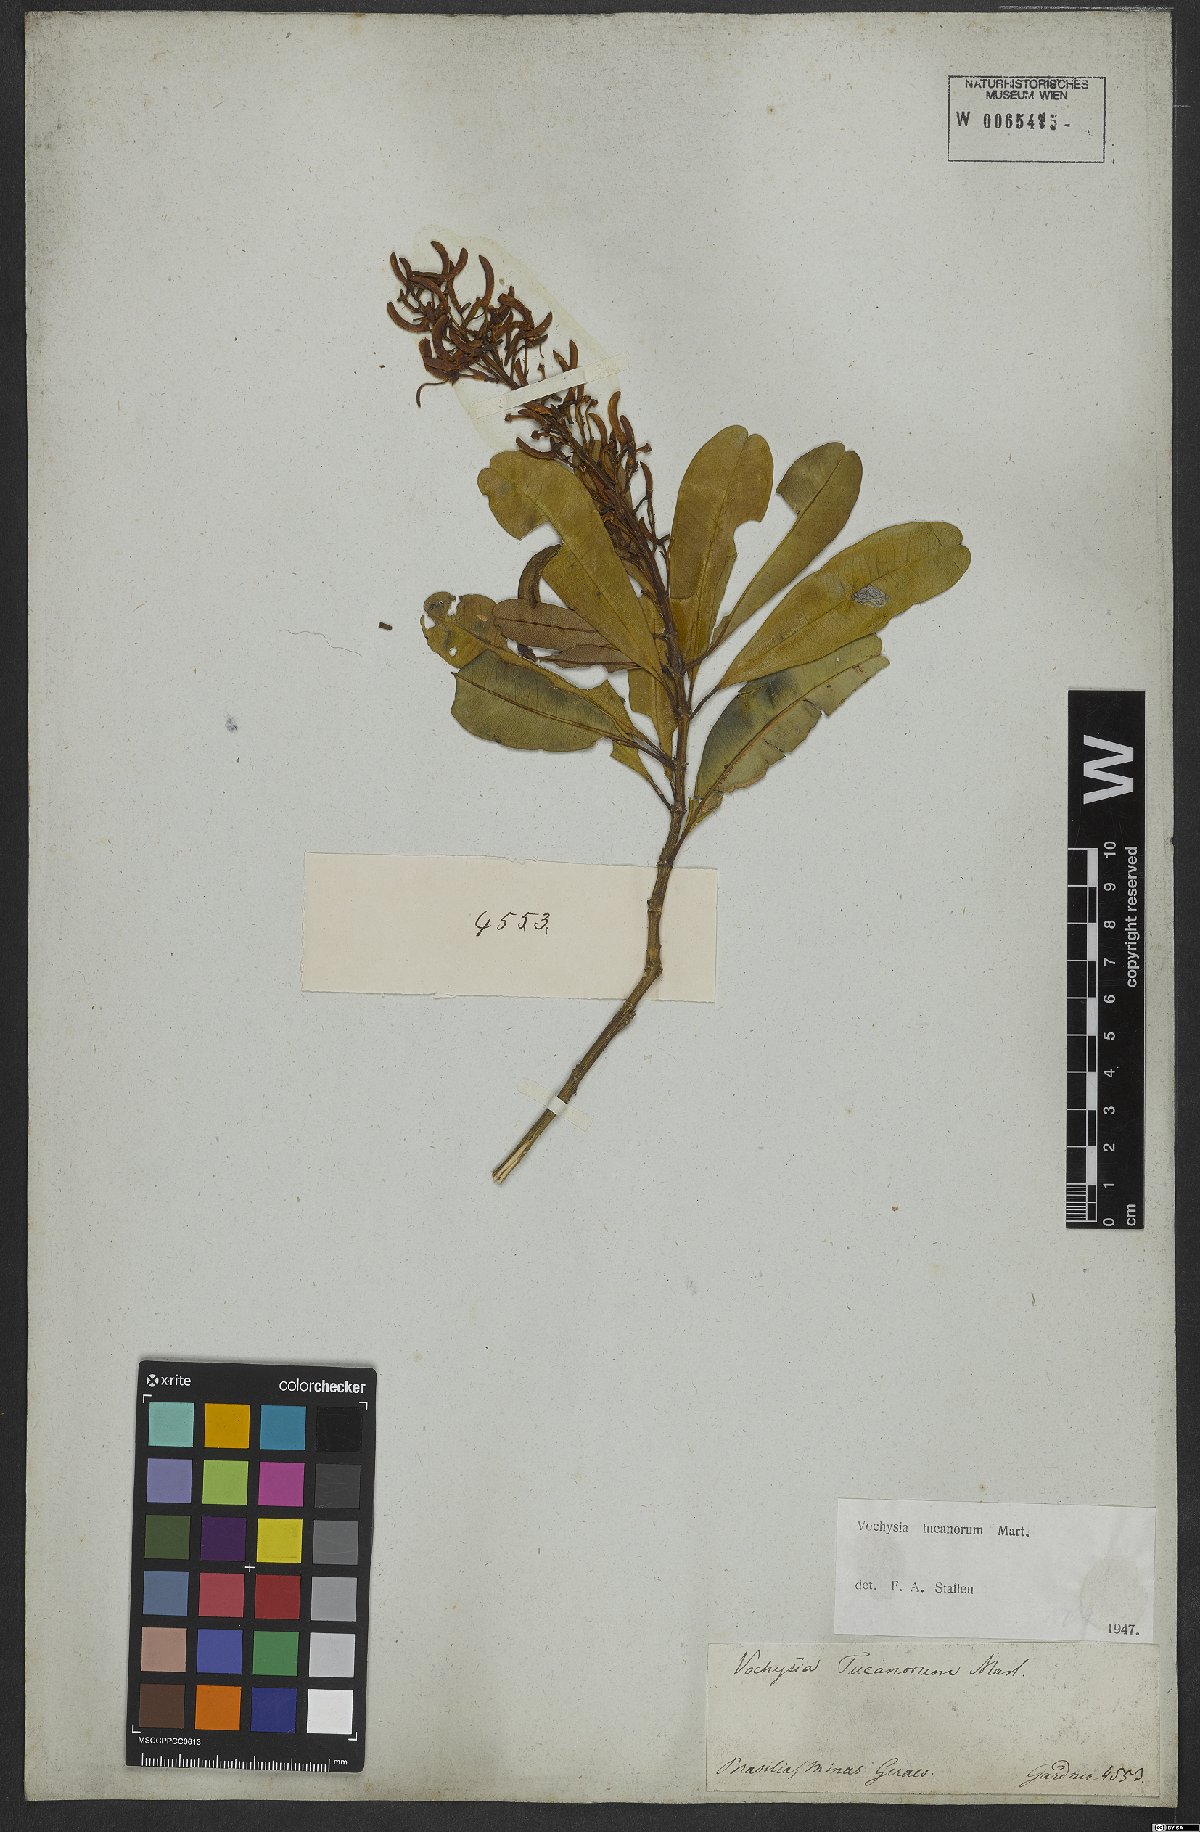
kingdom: Plantae
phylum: Tracheophyta
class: Magnoliopsida
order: Myrtales
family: Vochysiaceae
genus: Vochysia
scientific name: Vochysia tucanorum
